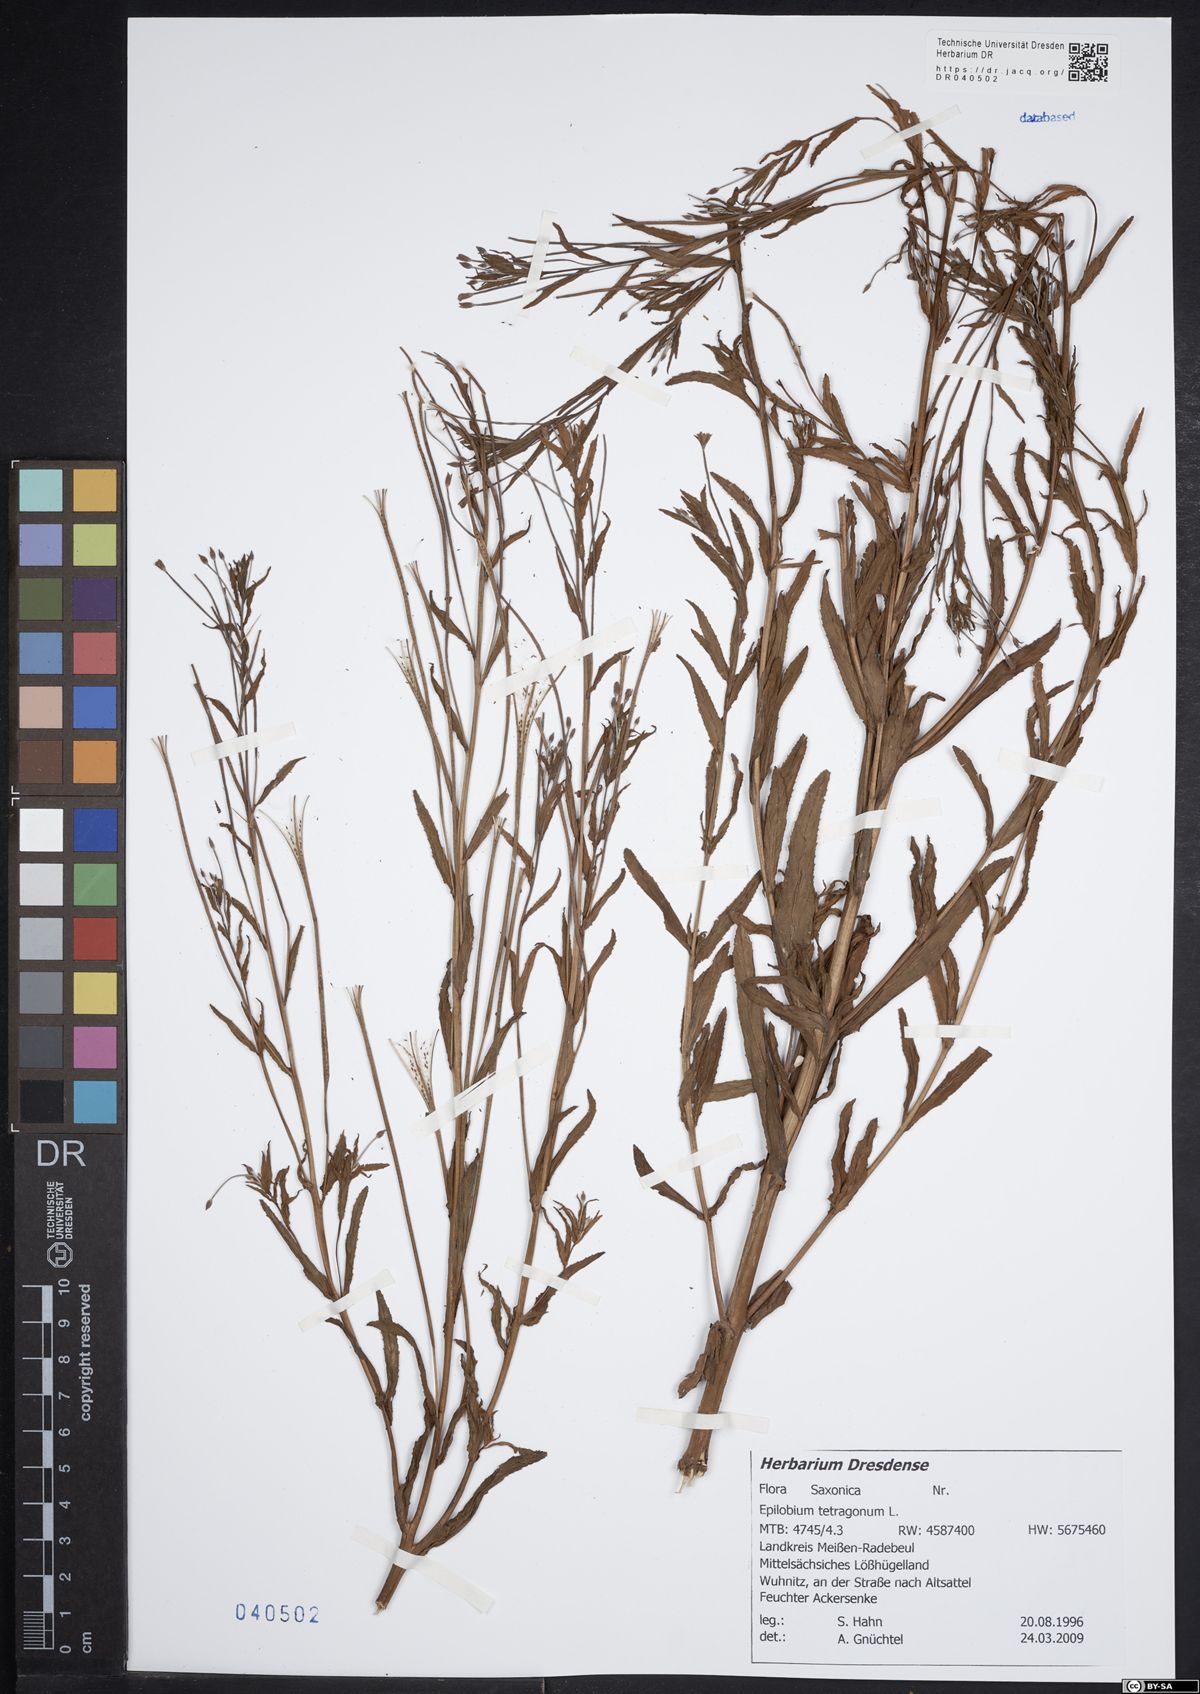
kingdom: Plantae
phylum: Tracheophyta
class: Magnoliopsida
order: Myrtales
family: Onagraceae
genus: Epilobium
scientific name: Epilobium tetragonum
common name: Square-stemmed willowherb
